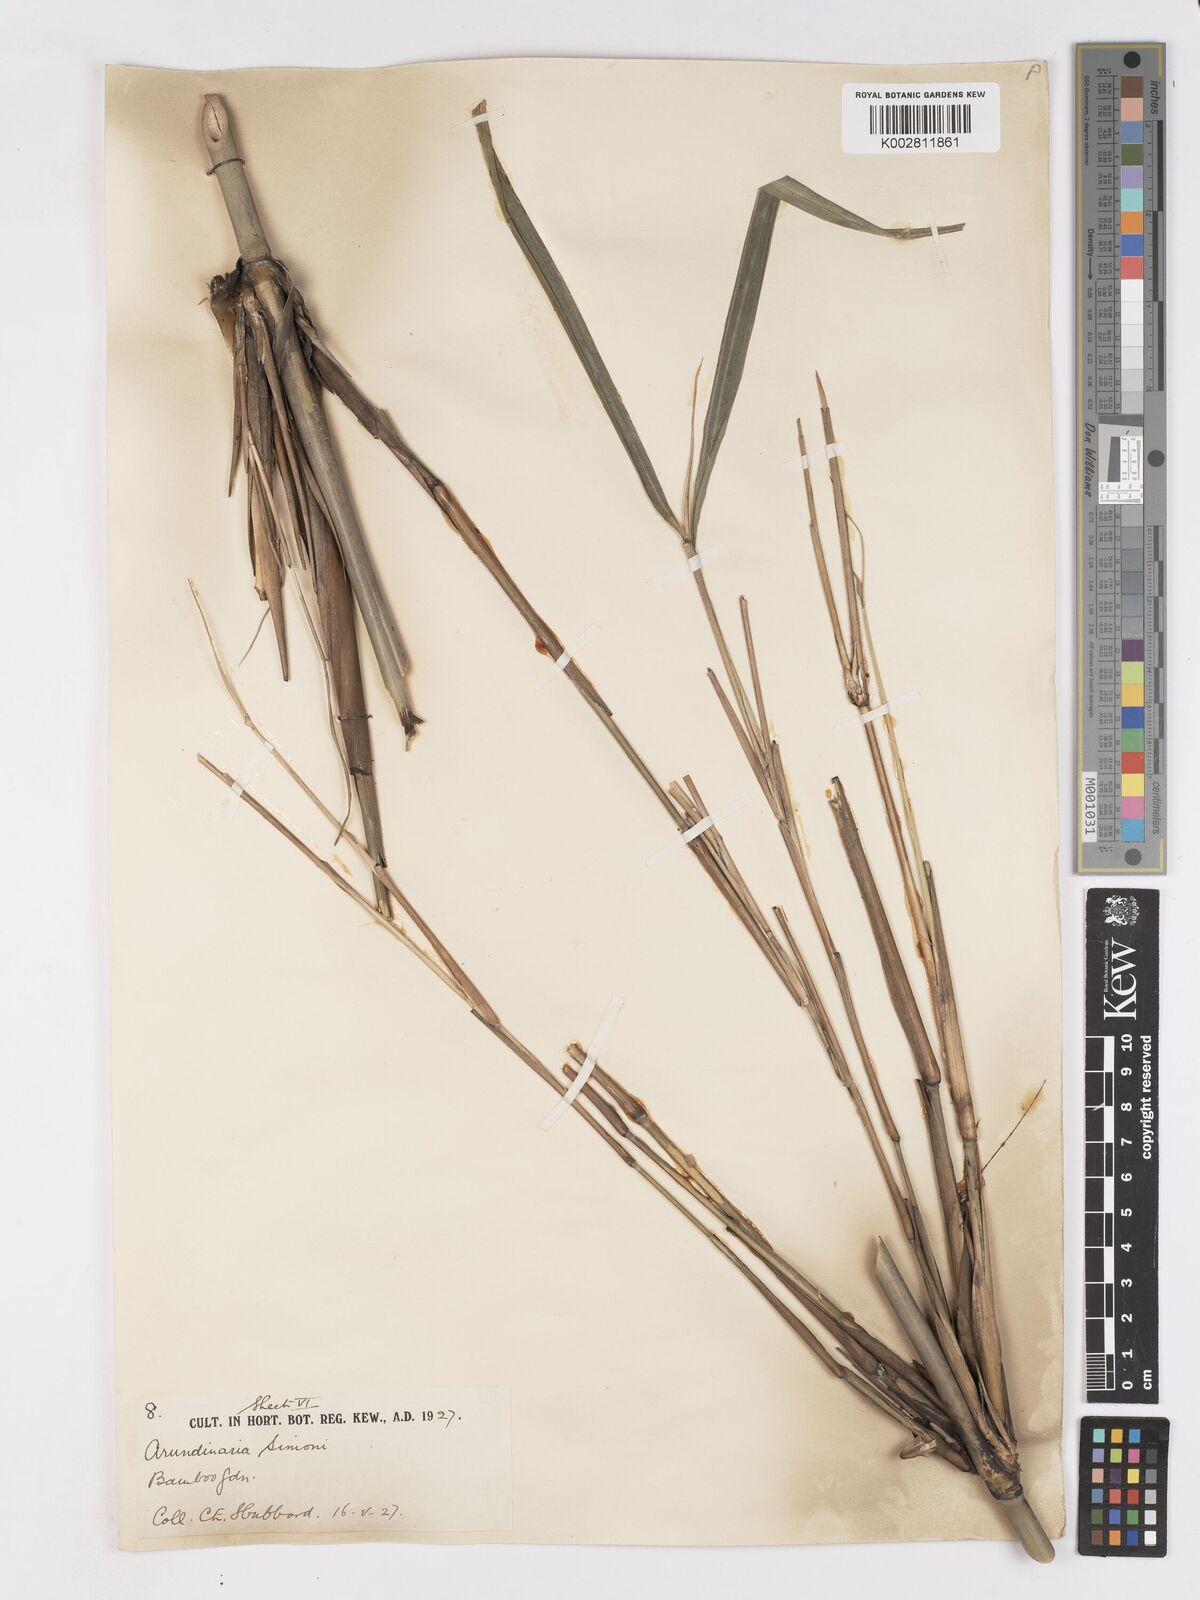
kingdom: Plantae
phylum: Tracheophyta
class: Liliopsida
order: Poales
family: Poaceae
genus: Pleioblastus
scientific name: Pleioblastus simonii
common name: Simon bamboo
